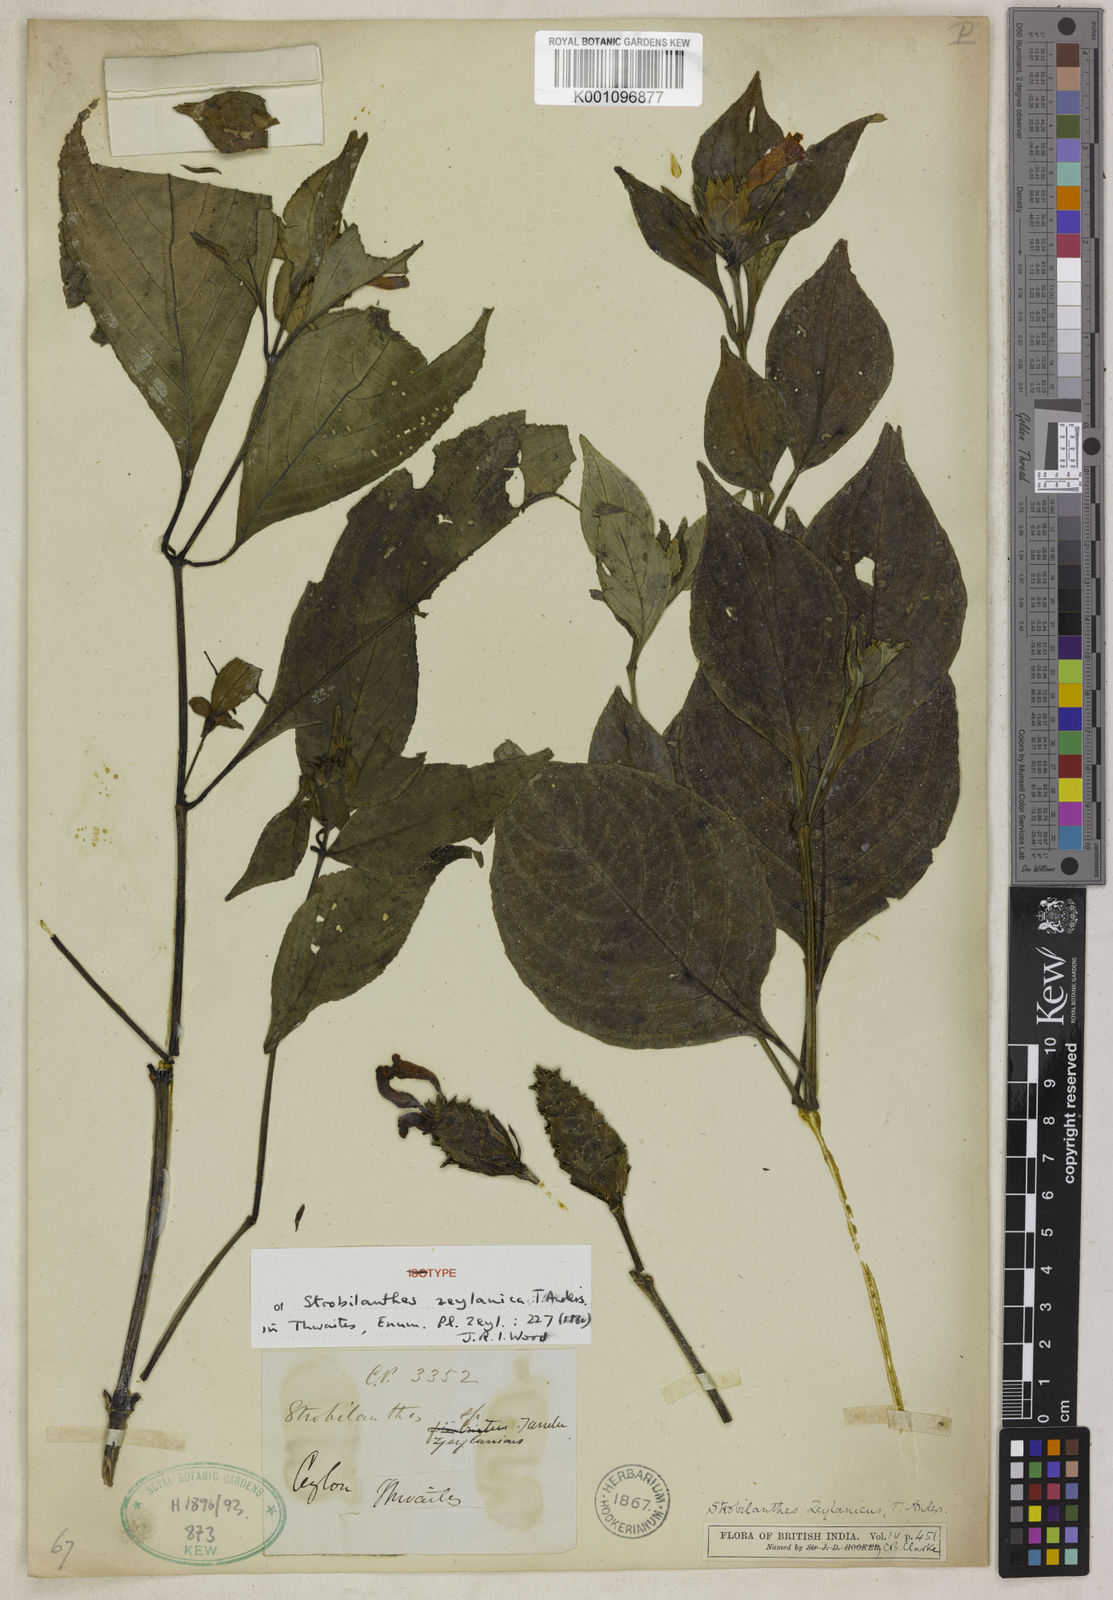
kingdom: Plantae
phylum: Tracheophyta
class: Magnoliopsida
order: Lamiales
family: Acanthaceae
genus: Strobilanthes
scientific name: Strobilanthes zeylanica
